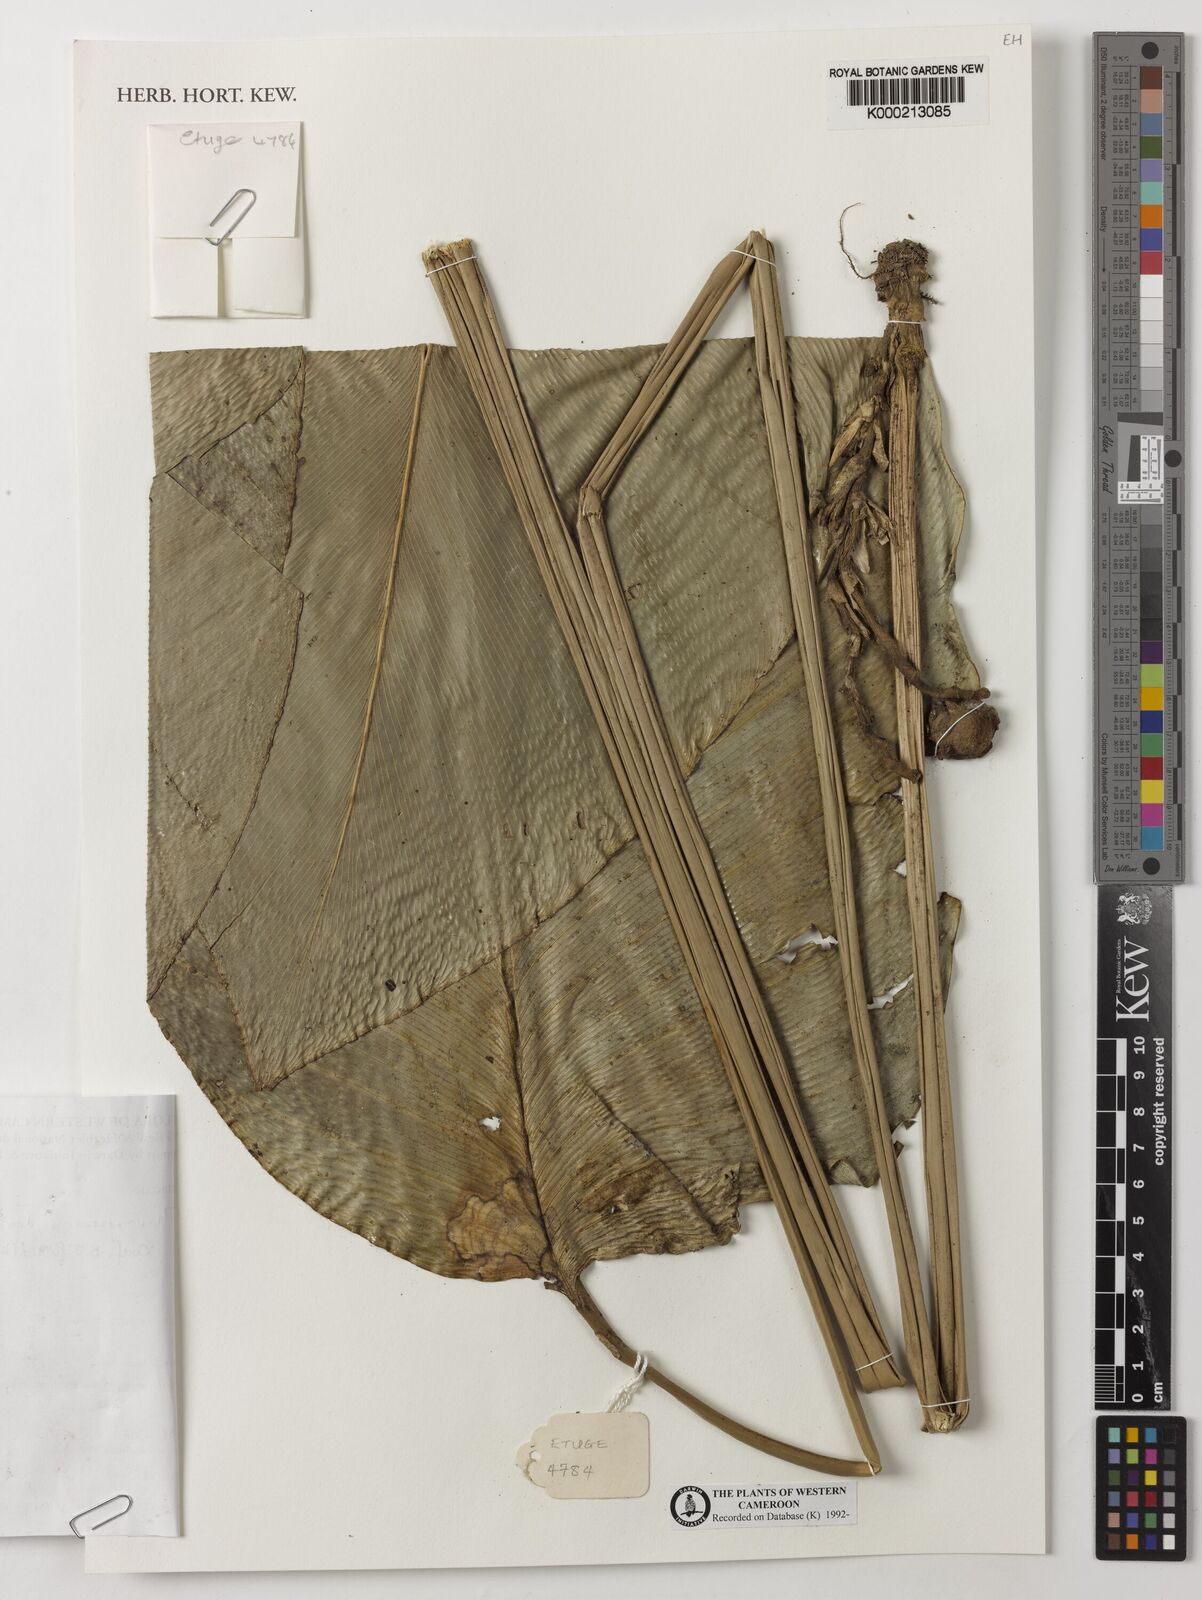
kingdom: Plantae
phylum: Tracheophyta
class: Liliopsida
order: Zingiberales
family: Marantaceae
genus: Thaumatococcus
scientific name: Thaumatococcus
